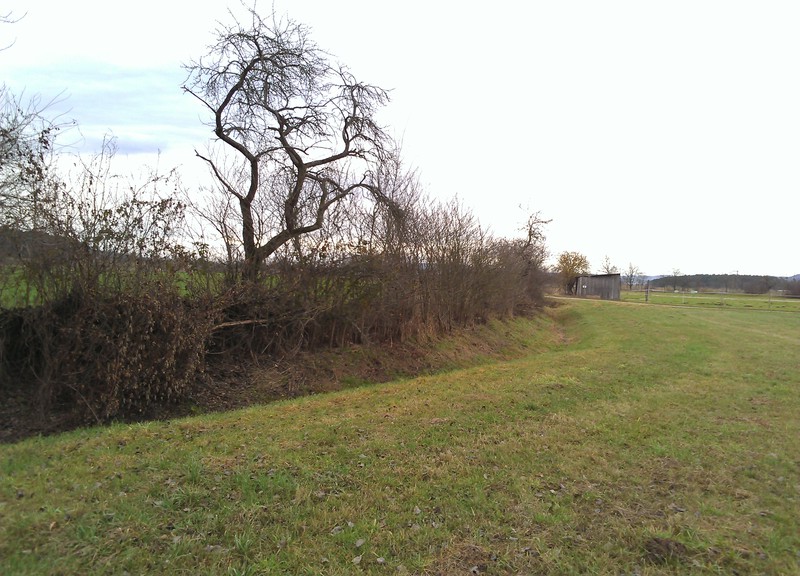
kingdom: Plantae
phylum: Tracheophyta
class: Magnoliopsida
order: Rosales
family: Rosaceae
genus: Prunus
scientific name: Prunus spinosa
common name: Blackthorn
